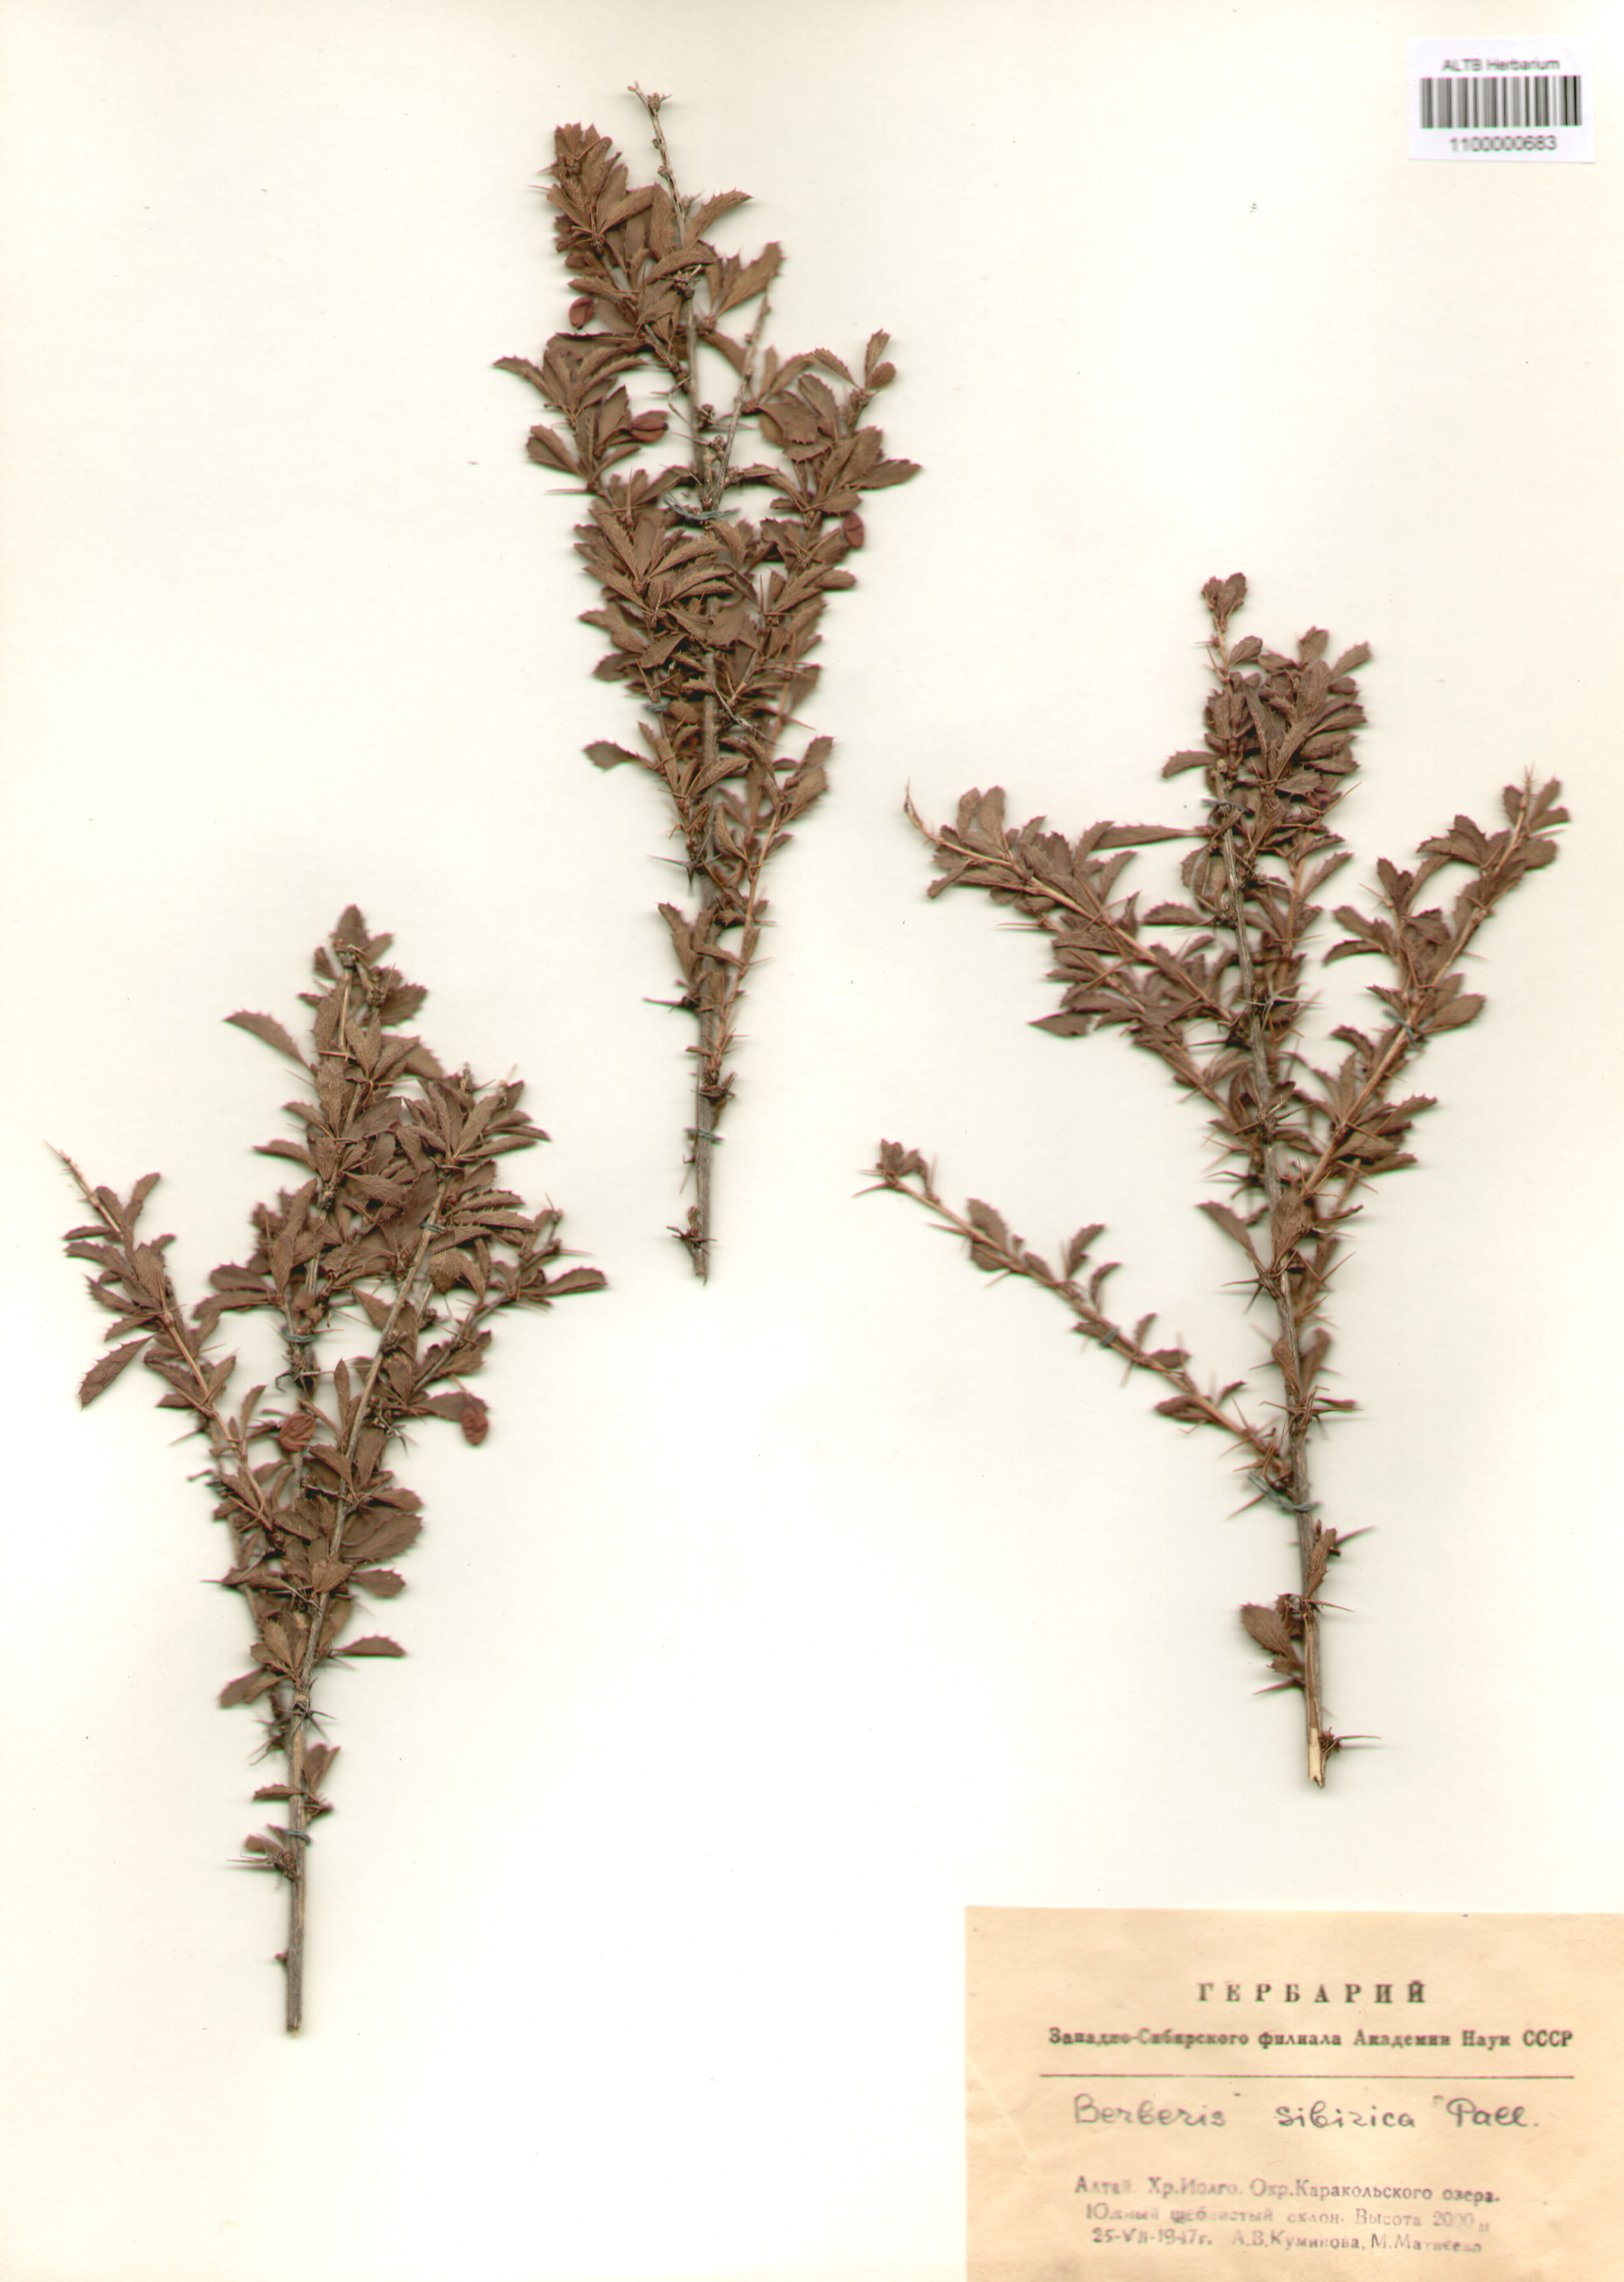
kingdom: Plantae
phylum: Tracheophyta
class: Magnoliopsida
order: Ranunculales
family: Berberidaceae
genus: Berberis
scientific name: Berberis sibirica
